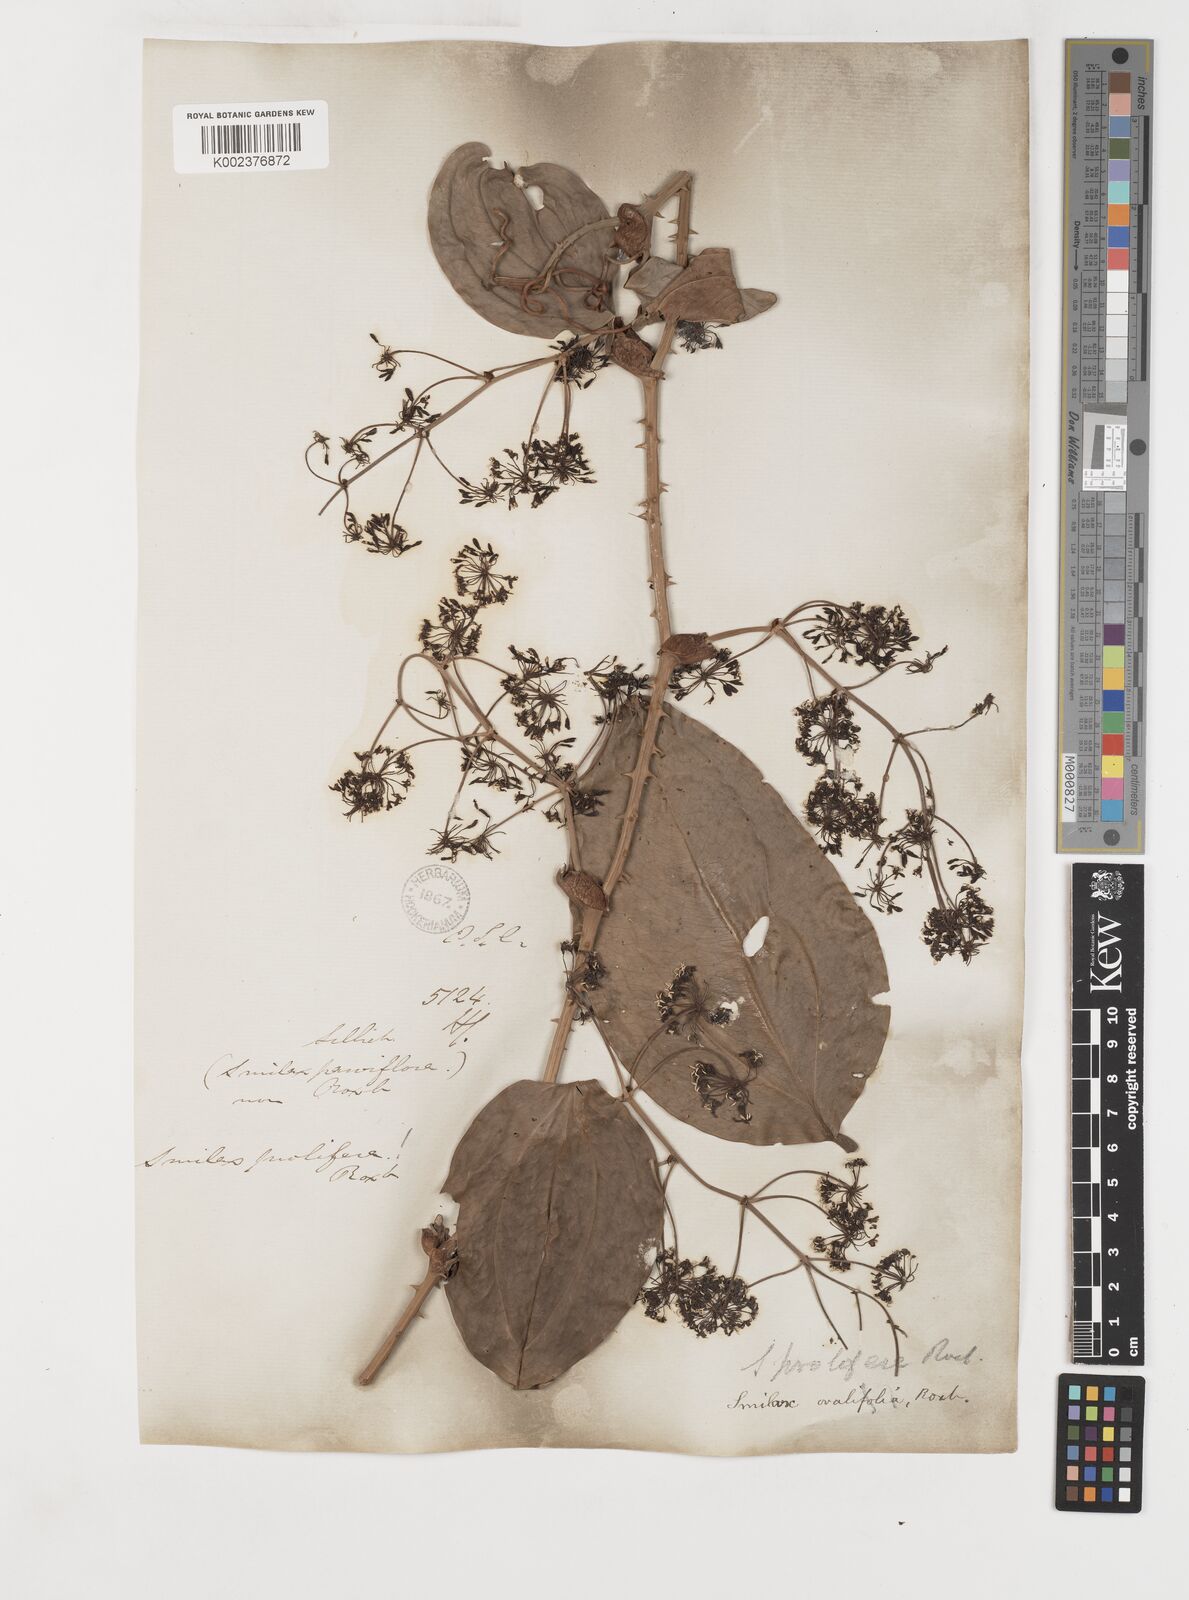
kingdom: Plantae
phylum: Tracheophyta
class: Liliopsida
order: Liliales
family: Smilacaceae
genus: Smilax
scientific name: Smilax prolifera
